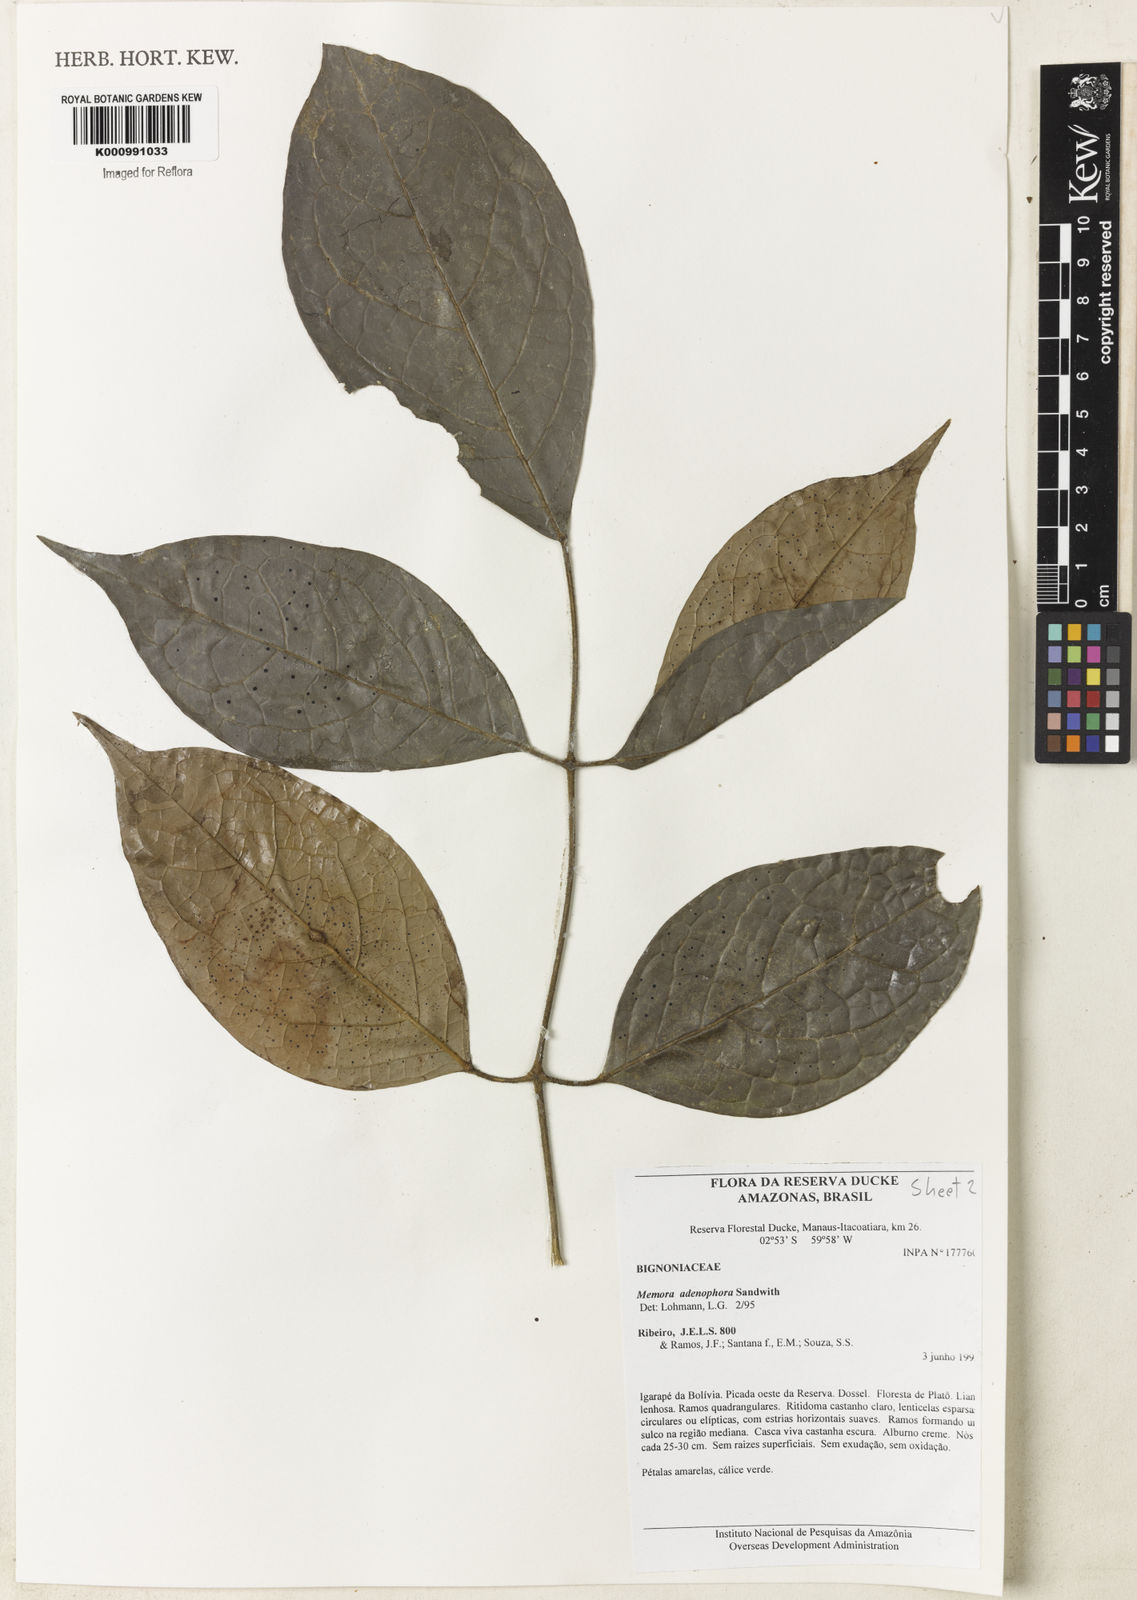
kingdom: Plantae
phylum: Tracheophyta
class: Magnoliopsida
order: Lamiales
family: Bignoniaceae
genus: Adenocalymma
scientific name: Adenocalymma adenophorum
